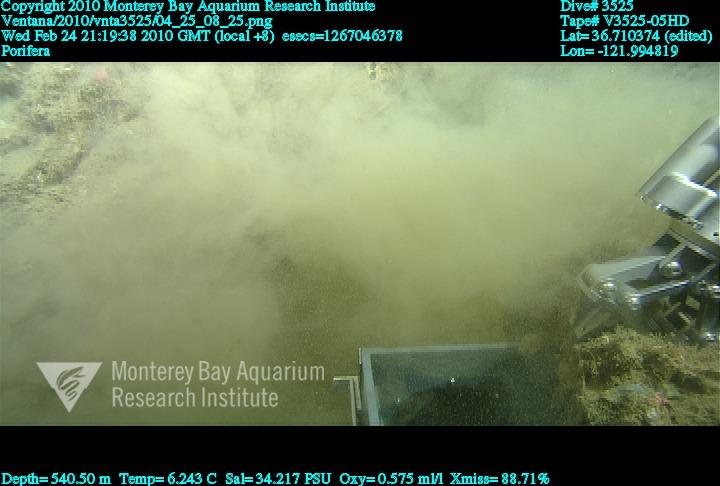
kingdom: Animalia
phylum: Porifera
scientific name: Porifera
